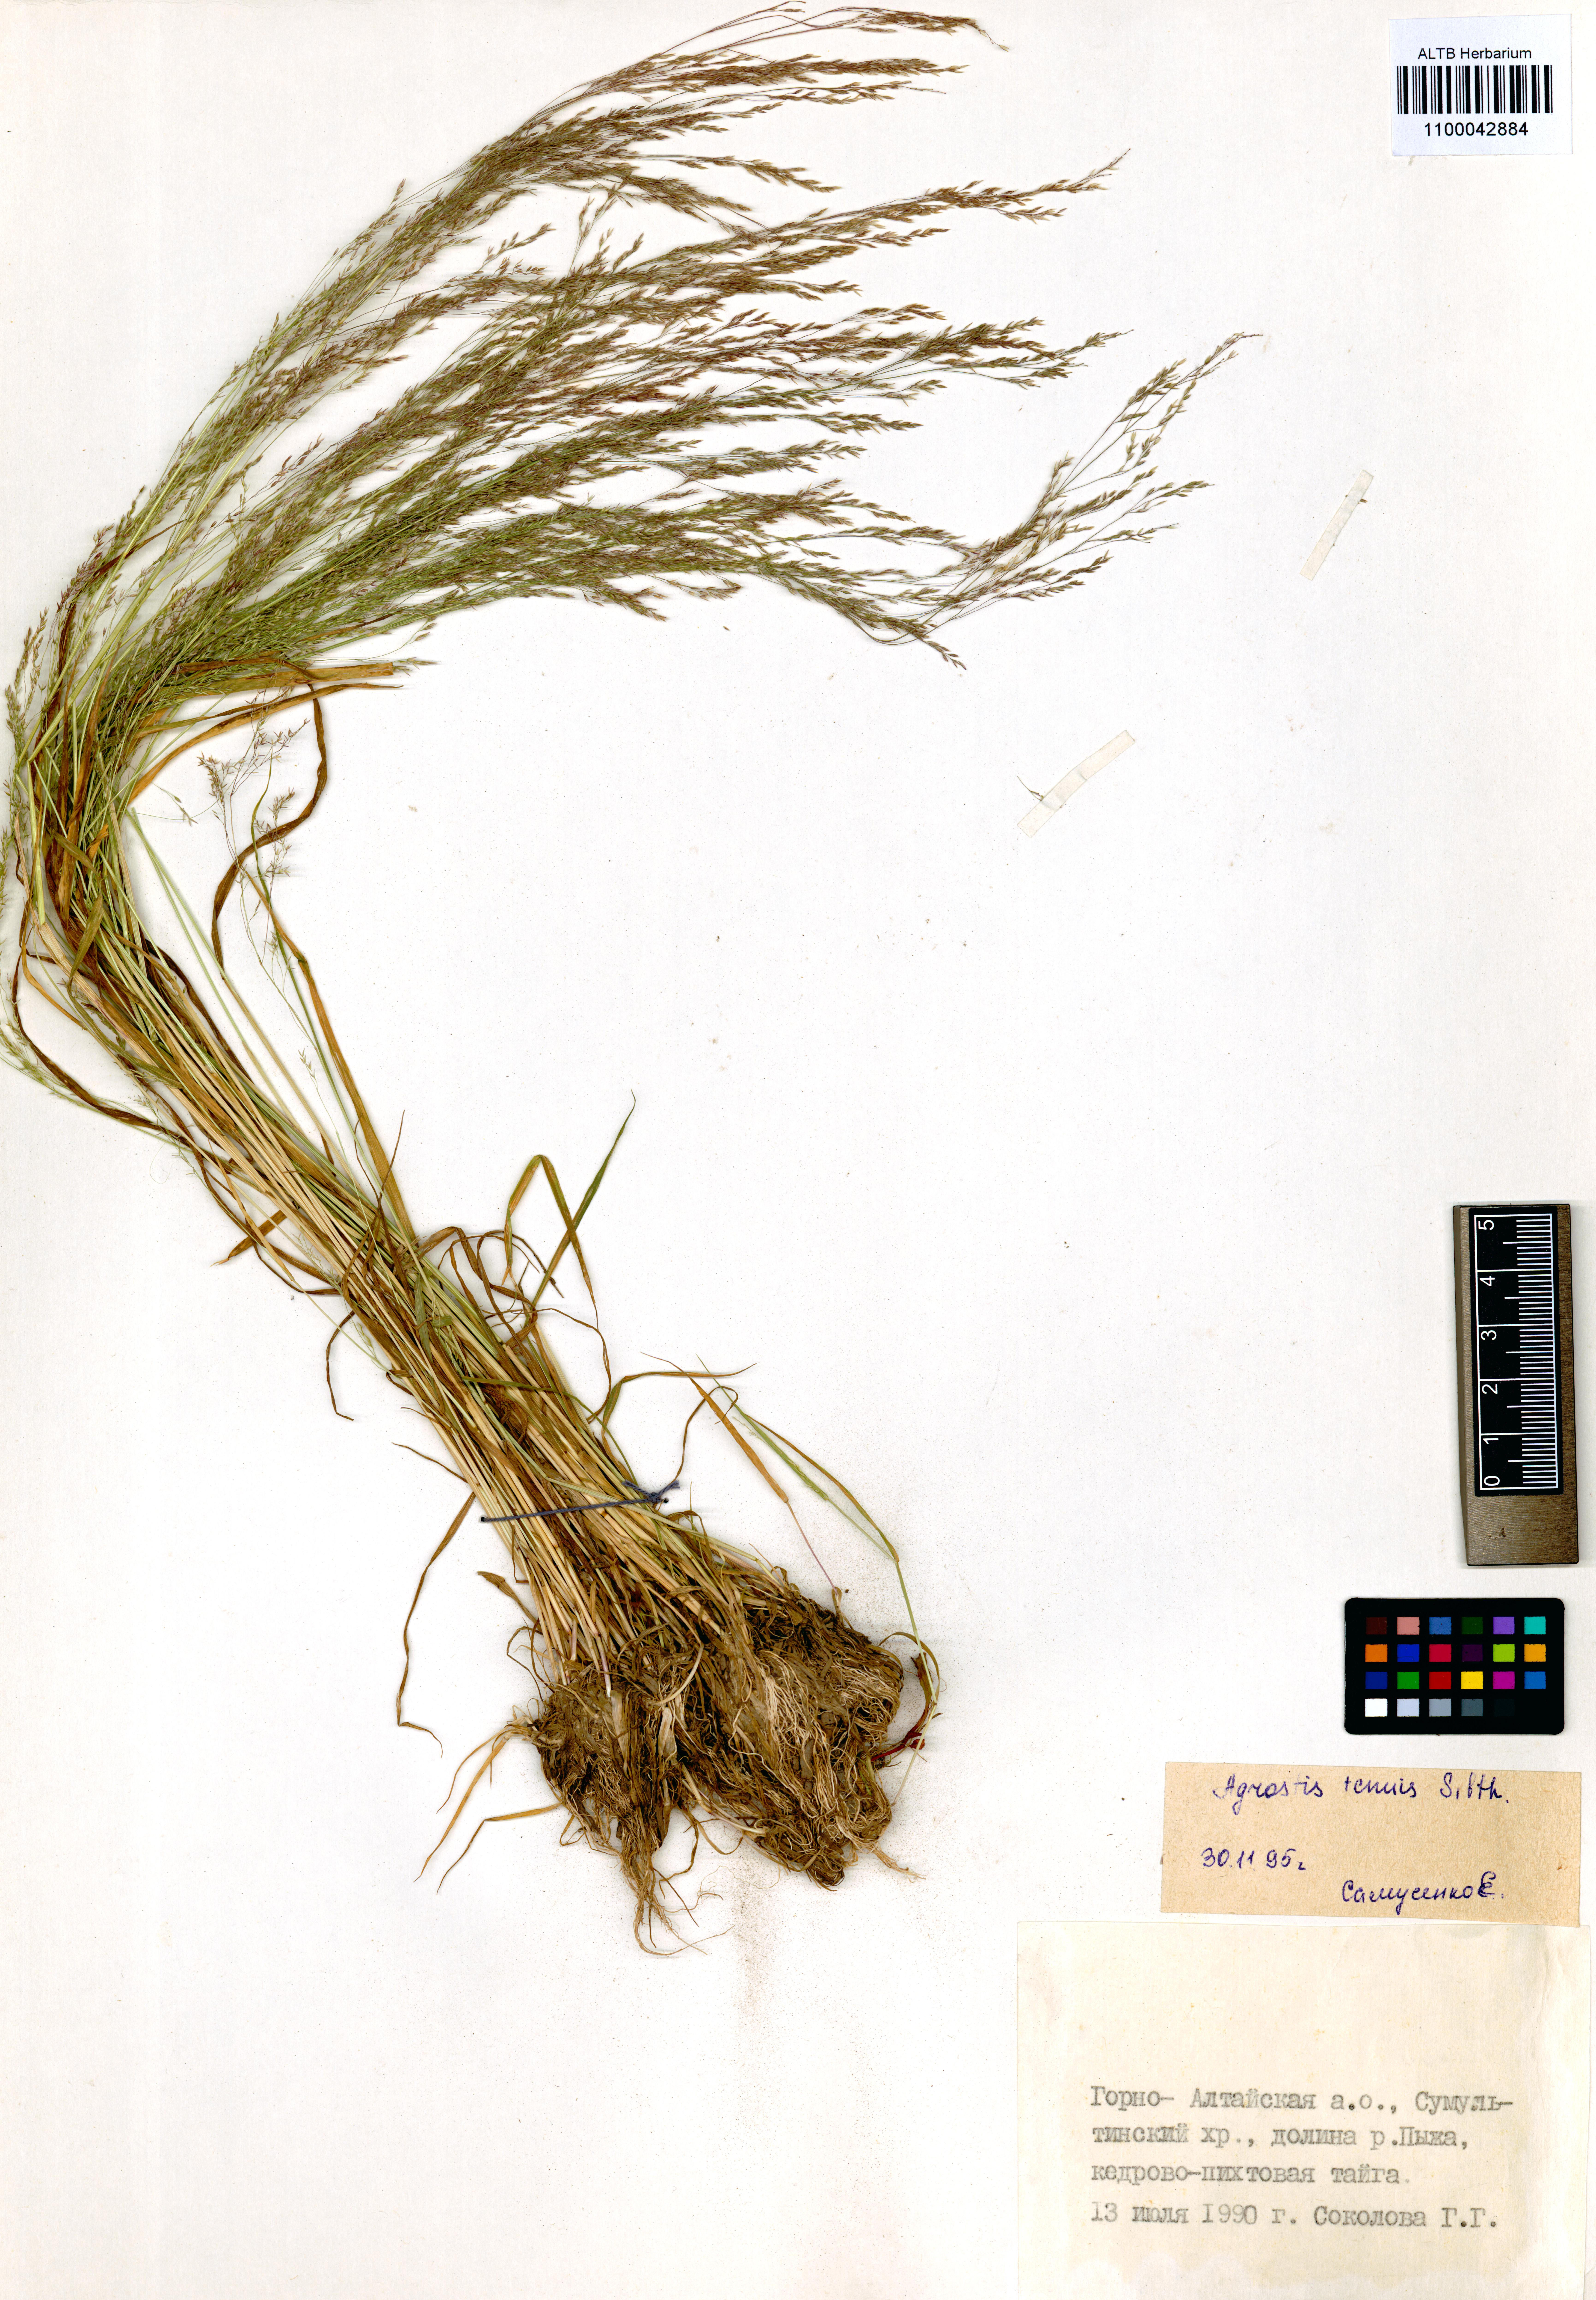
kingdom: Plantae
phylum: Tracheophyta
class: Liliopsida
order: Poales
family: Poaceae
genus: Agrostis
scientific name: Agrostis capillaris
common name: Colonial bentgrass
